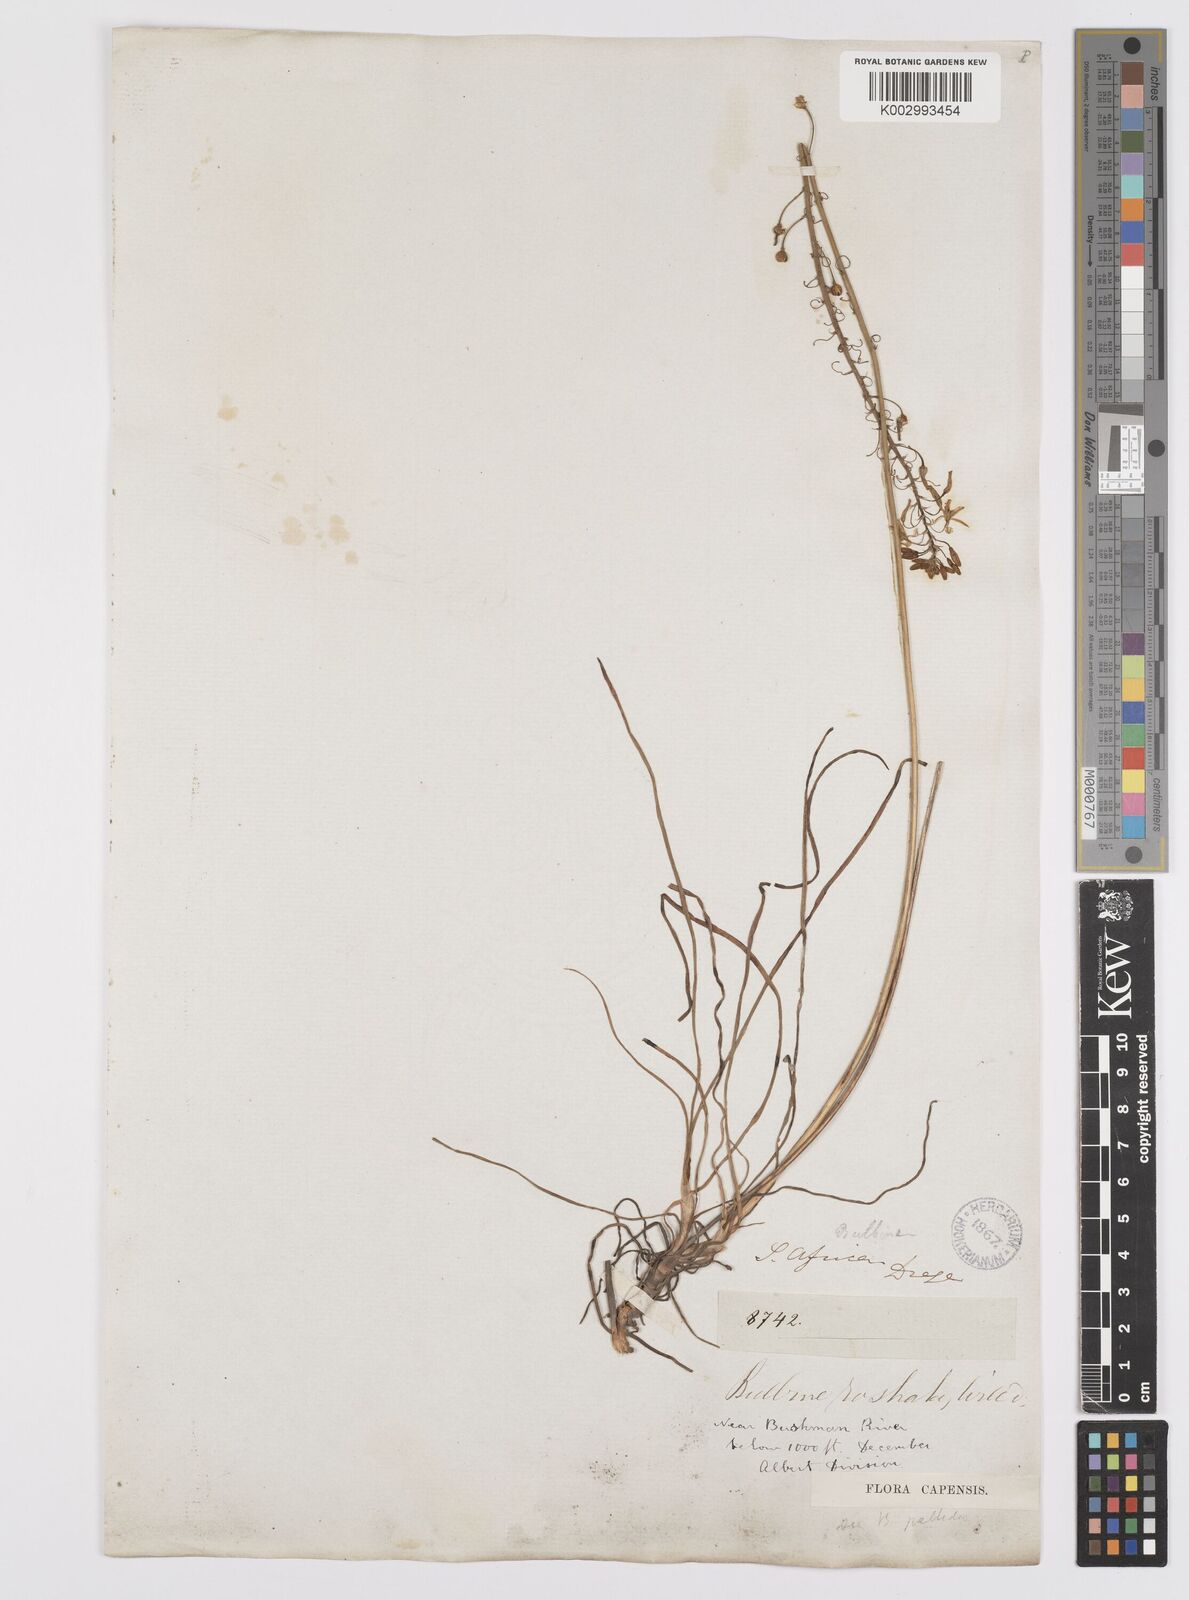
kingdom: Plantae
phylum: Tracheophyta
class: Liliopsida
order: Asparagales
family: Asphodelaceae
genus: Bulbine
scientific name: Bulbine frutescens
